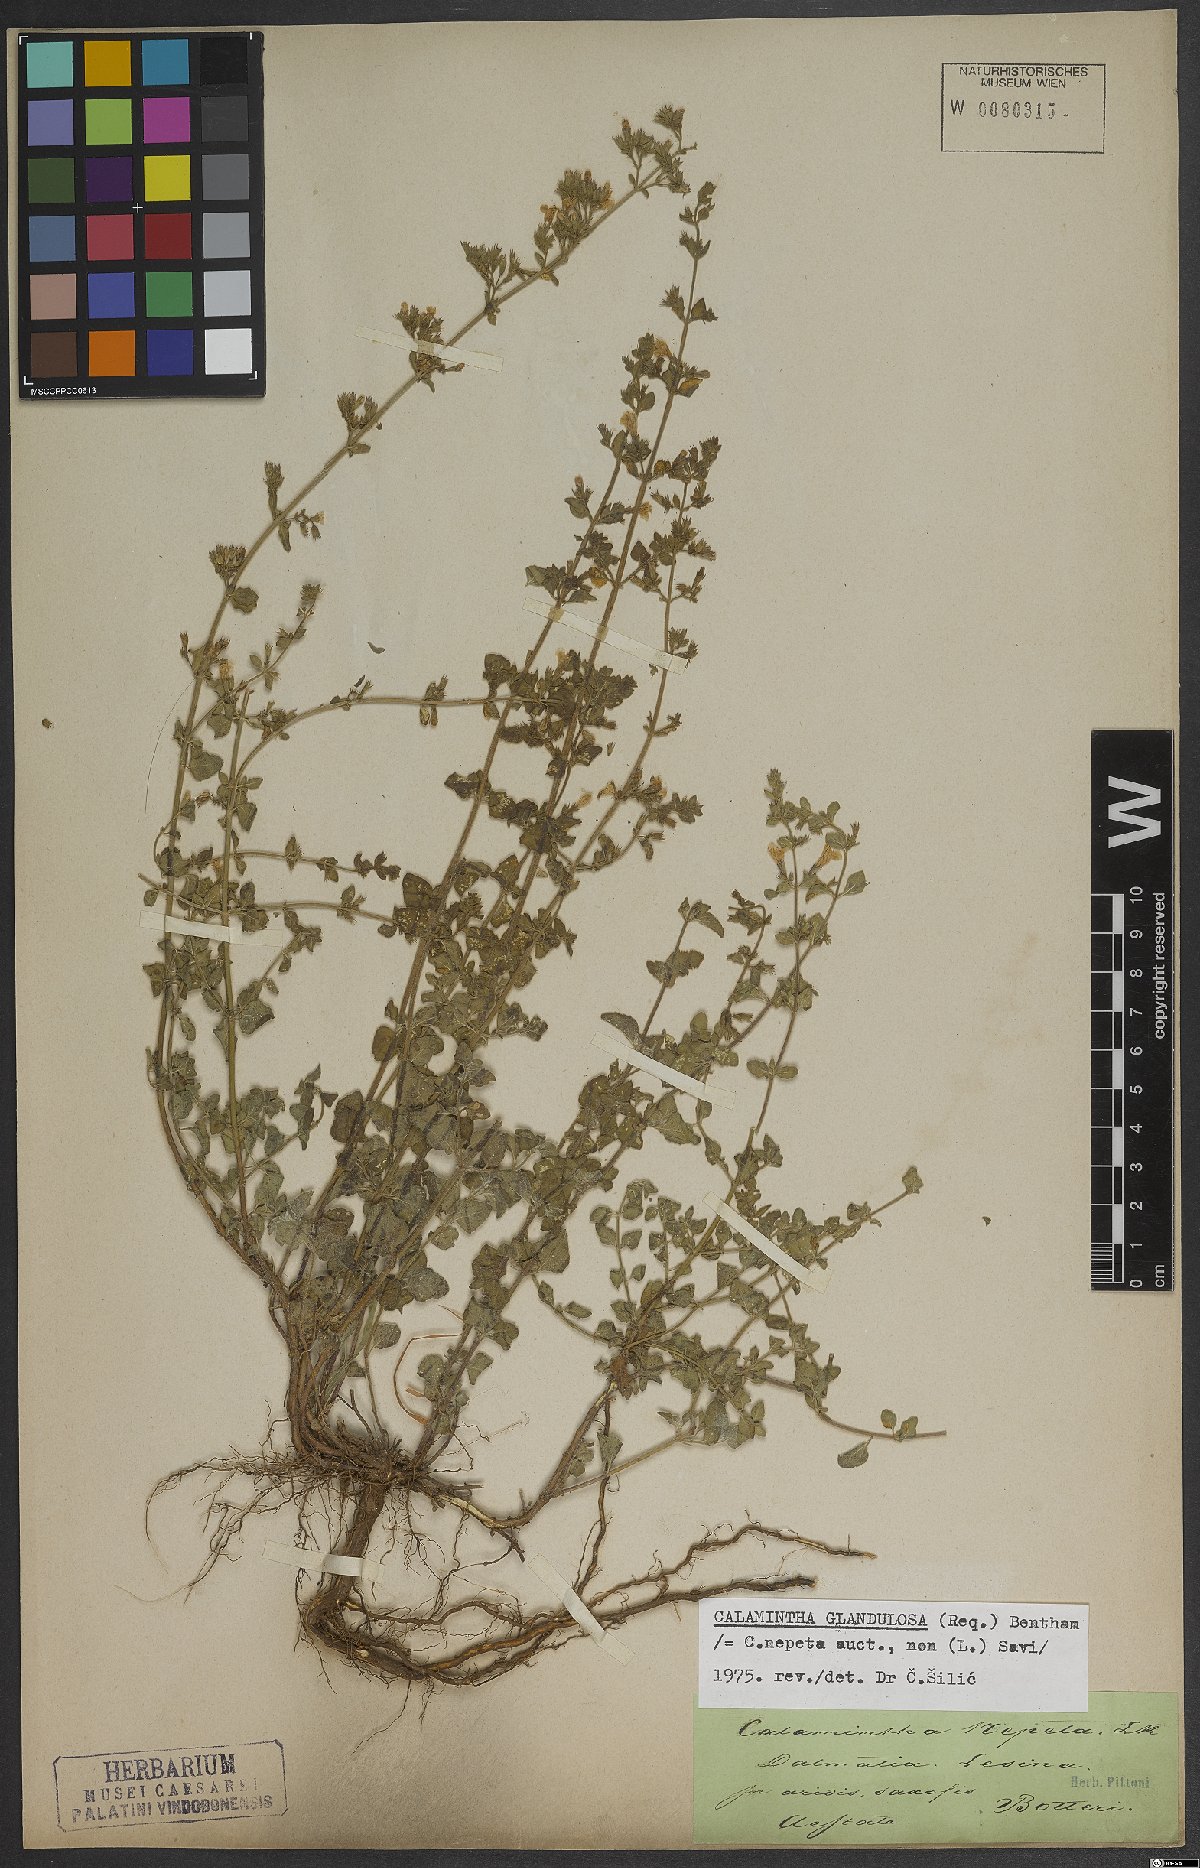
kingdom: Plantae
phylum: Tracheophyta
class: Magnoliopsida
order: Lamiales
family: Lamiaceae
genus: Clinopodium
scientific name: Clinopodium nepeta
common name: Lesser calamint
